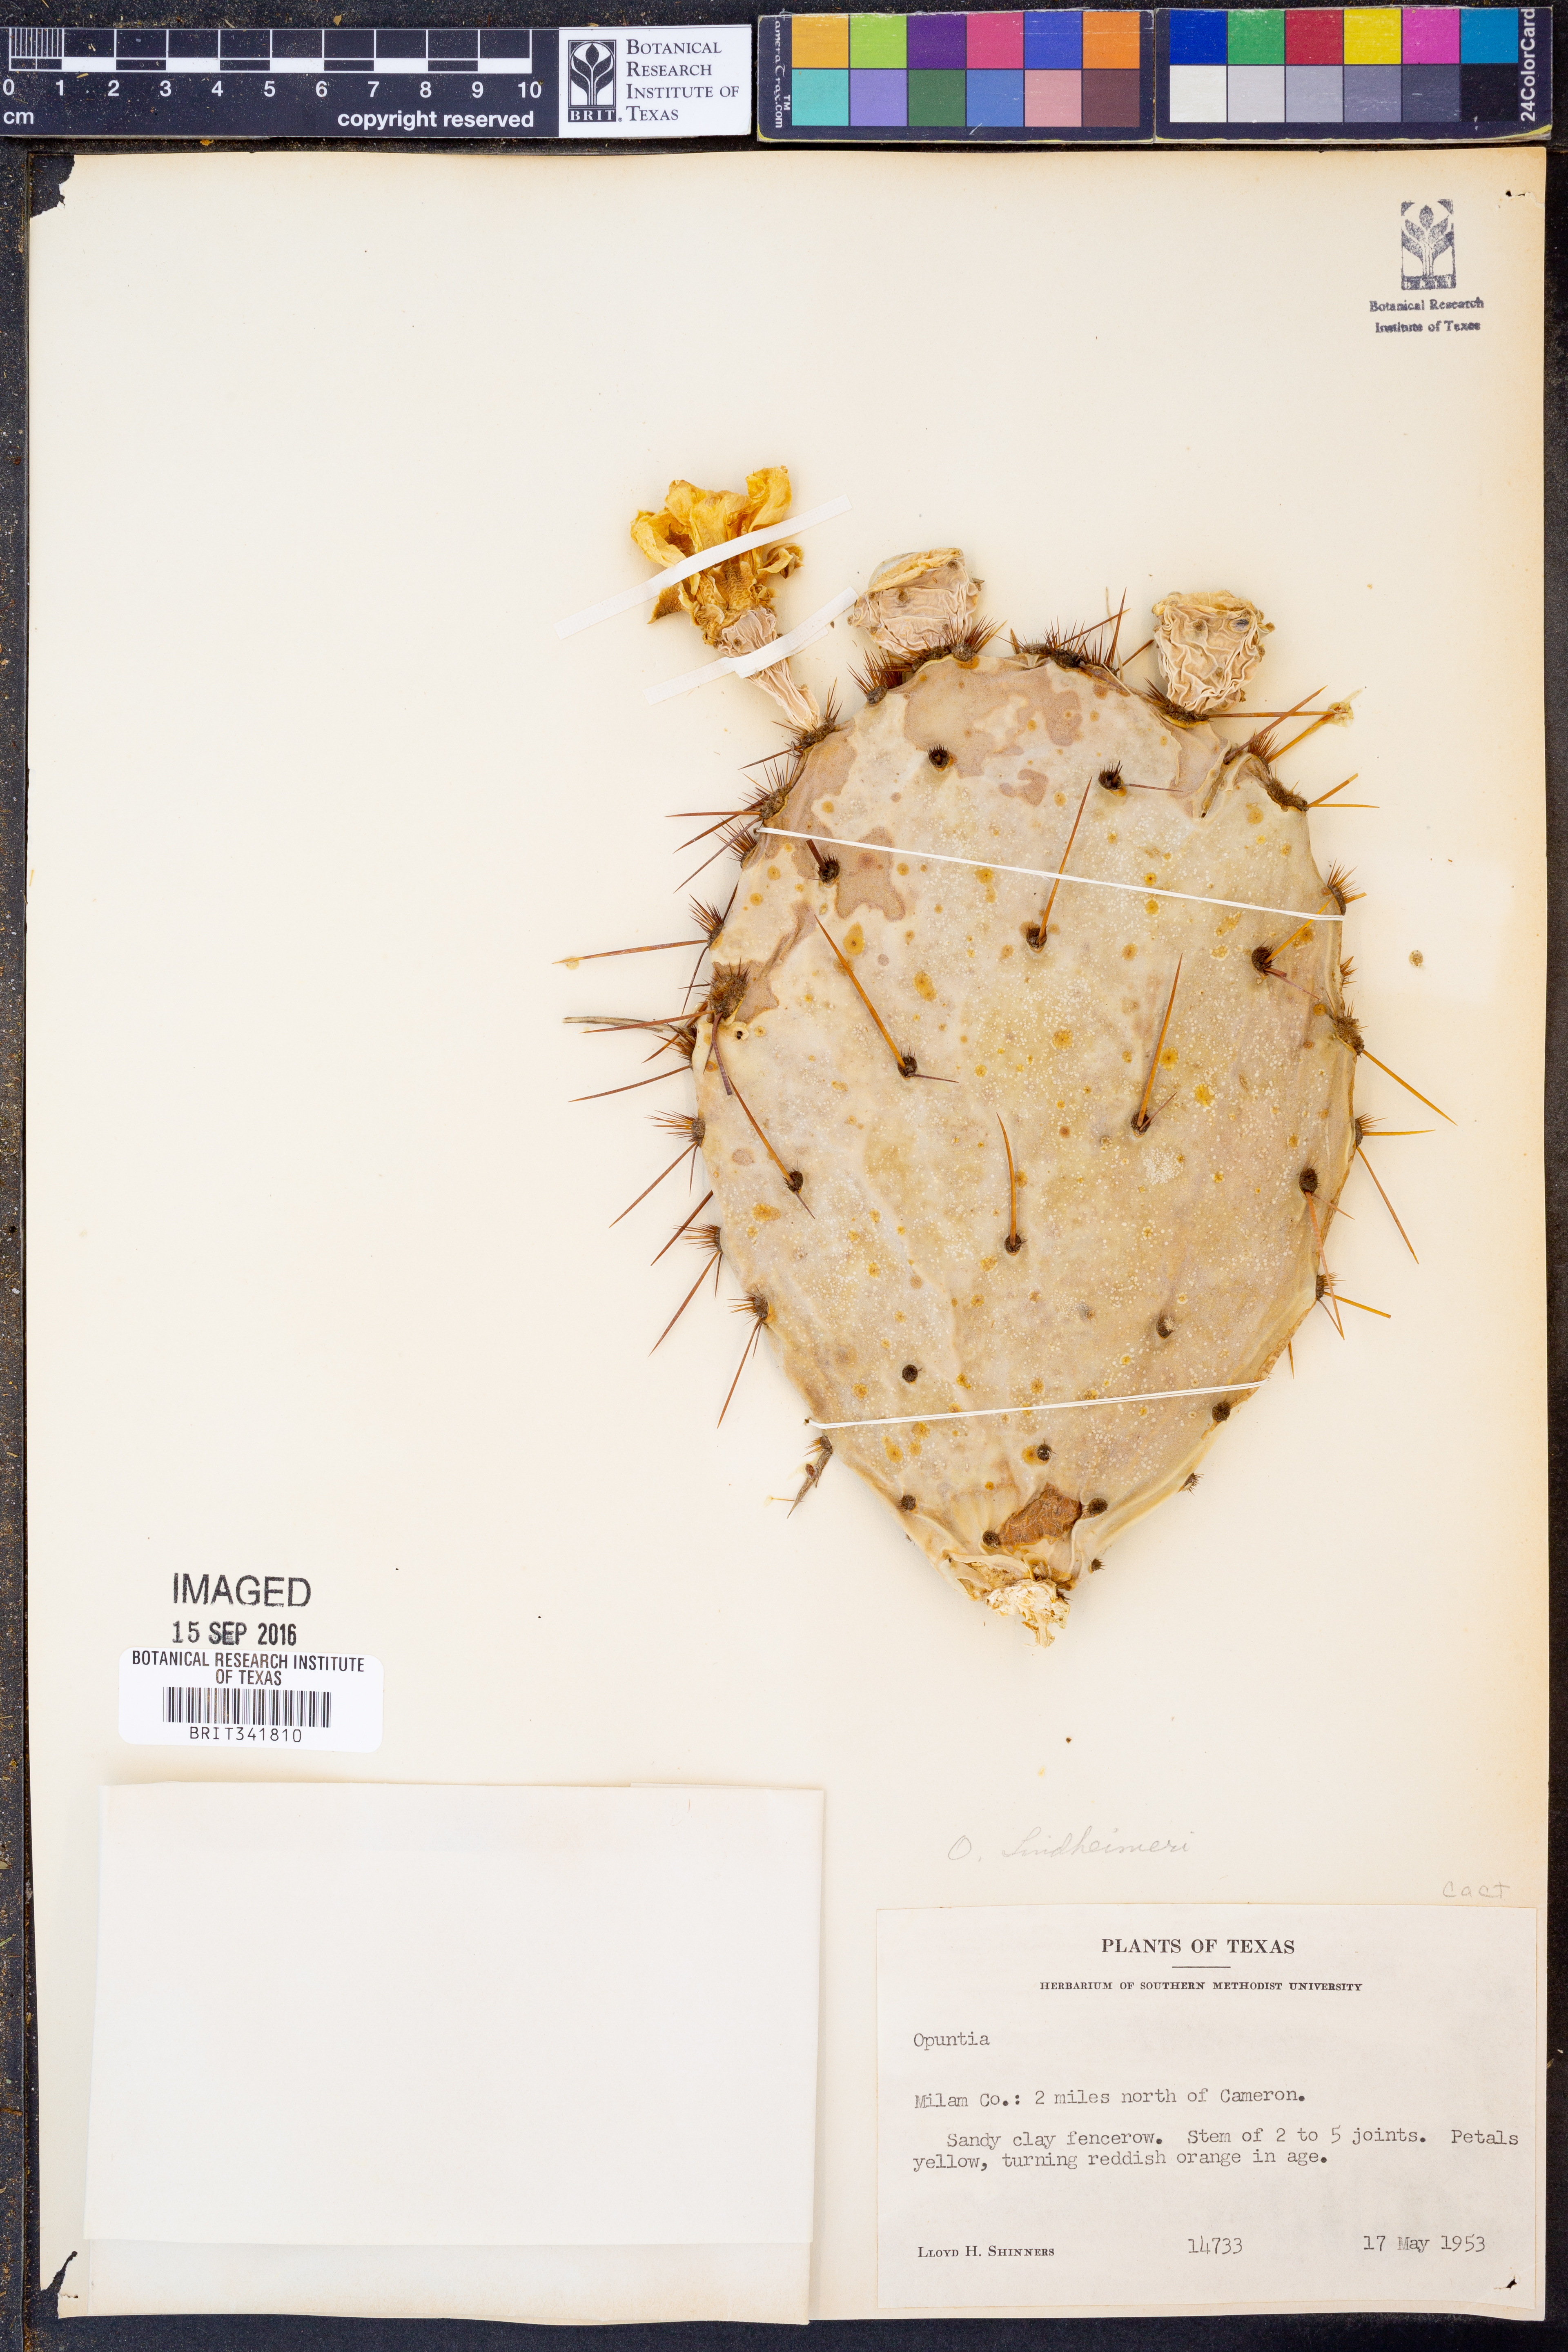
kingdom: Plantae
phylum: Tracheophyta
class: Magnoliopsida
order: Caryophyllales
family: Cactaceae
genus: Opuntia
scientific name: Opuntia engelmannii
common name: Cactus-apple
